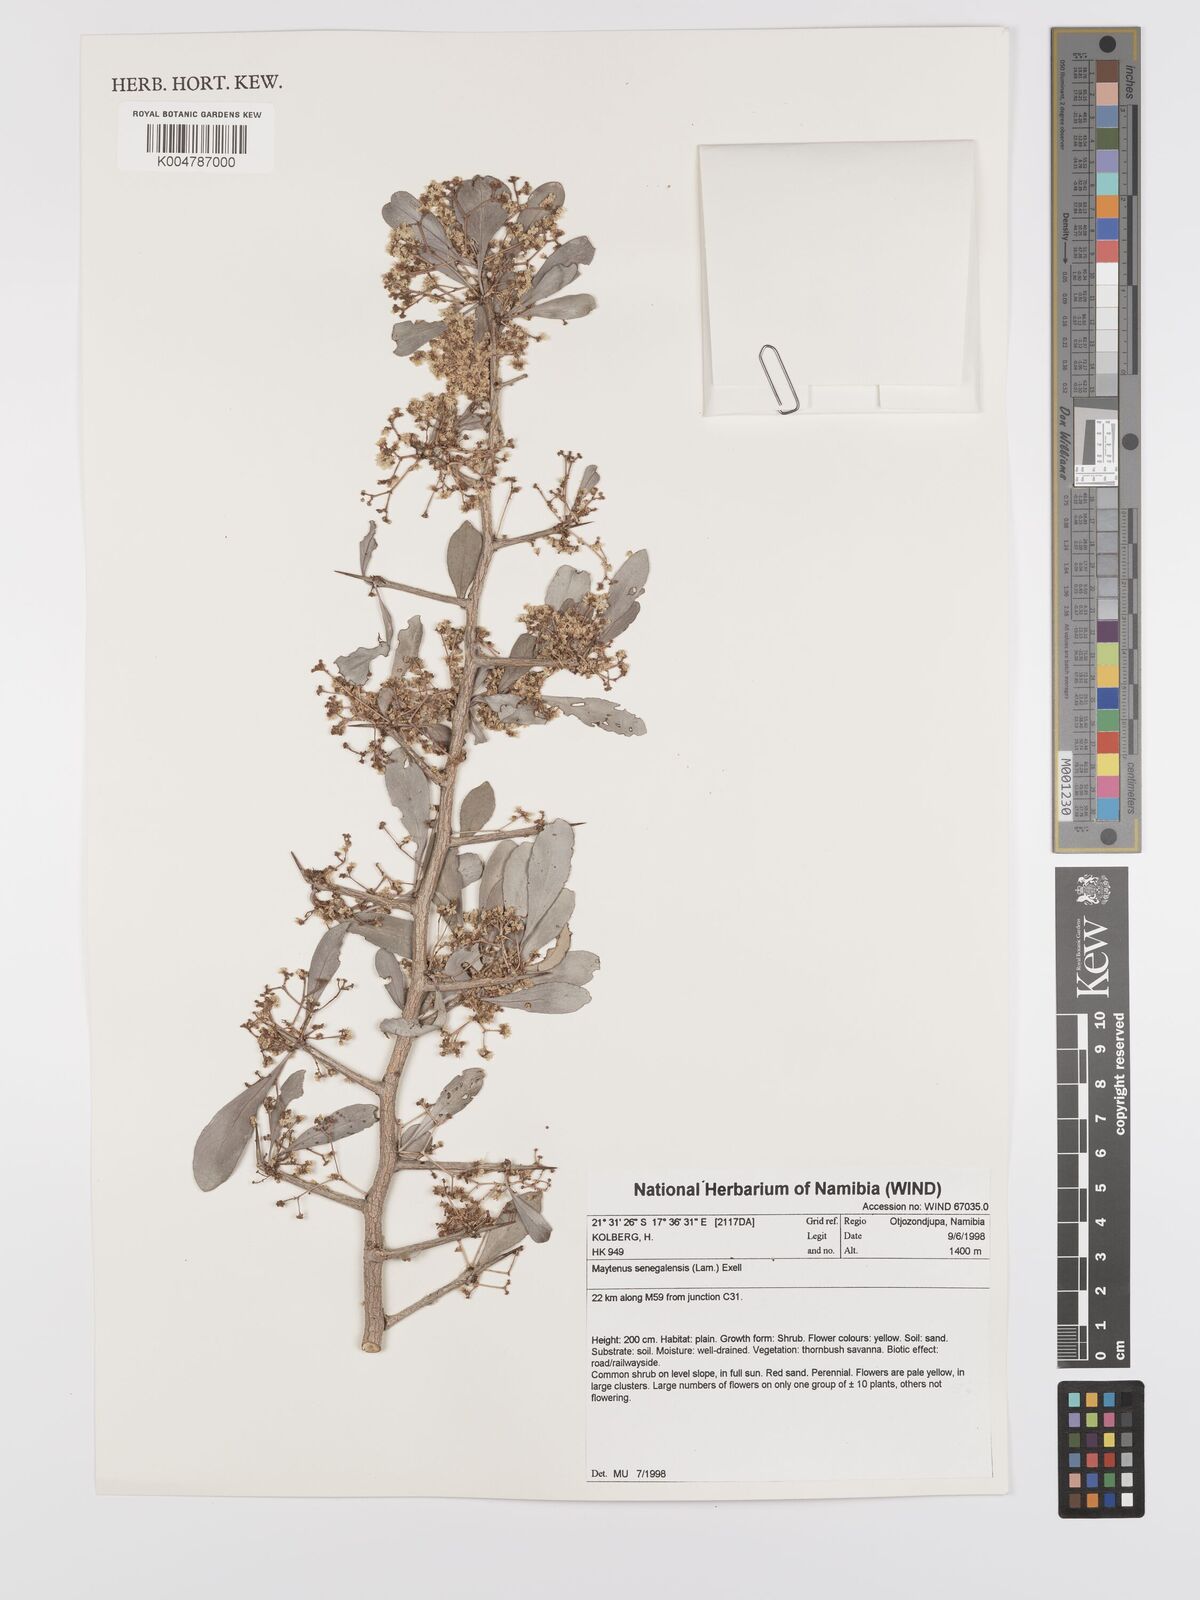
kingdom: Plantae
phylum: Tracheophyta
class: Magnoliopsida
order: Celastrales
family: Celastraceae
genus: Gymnosporia
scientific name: Gymnosporia senegalensis
